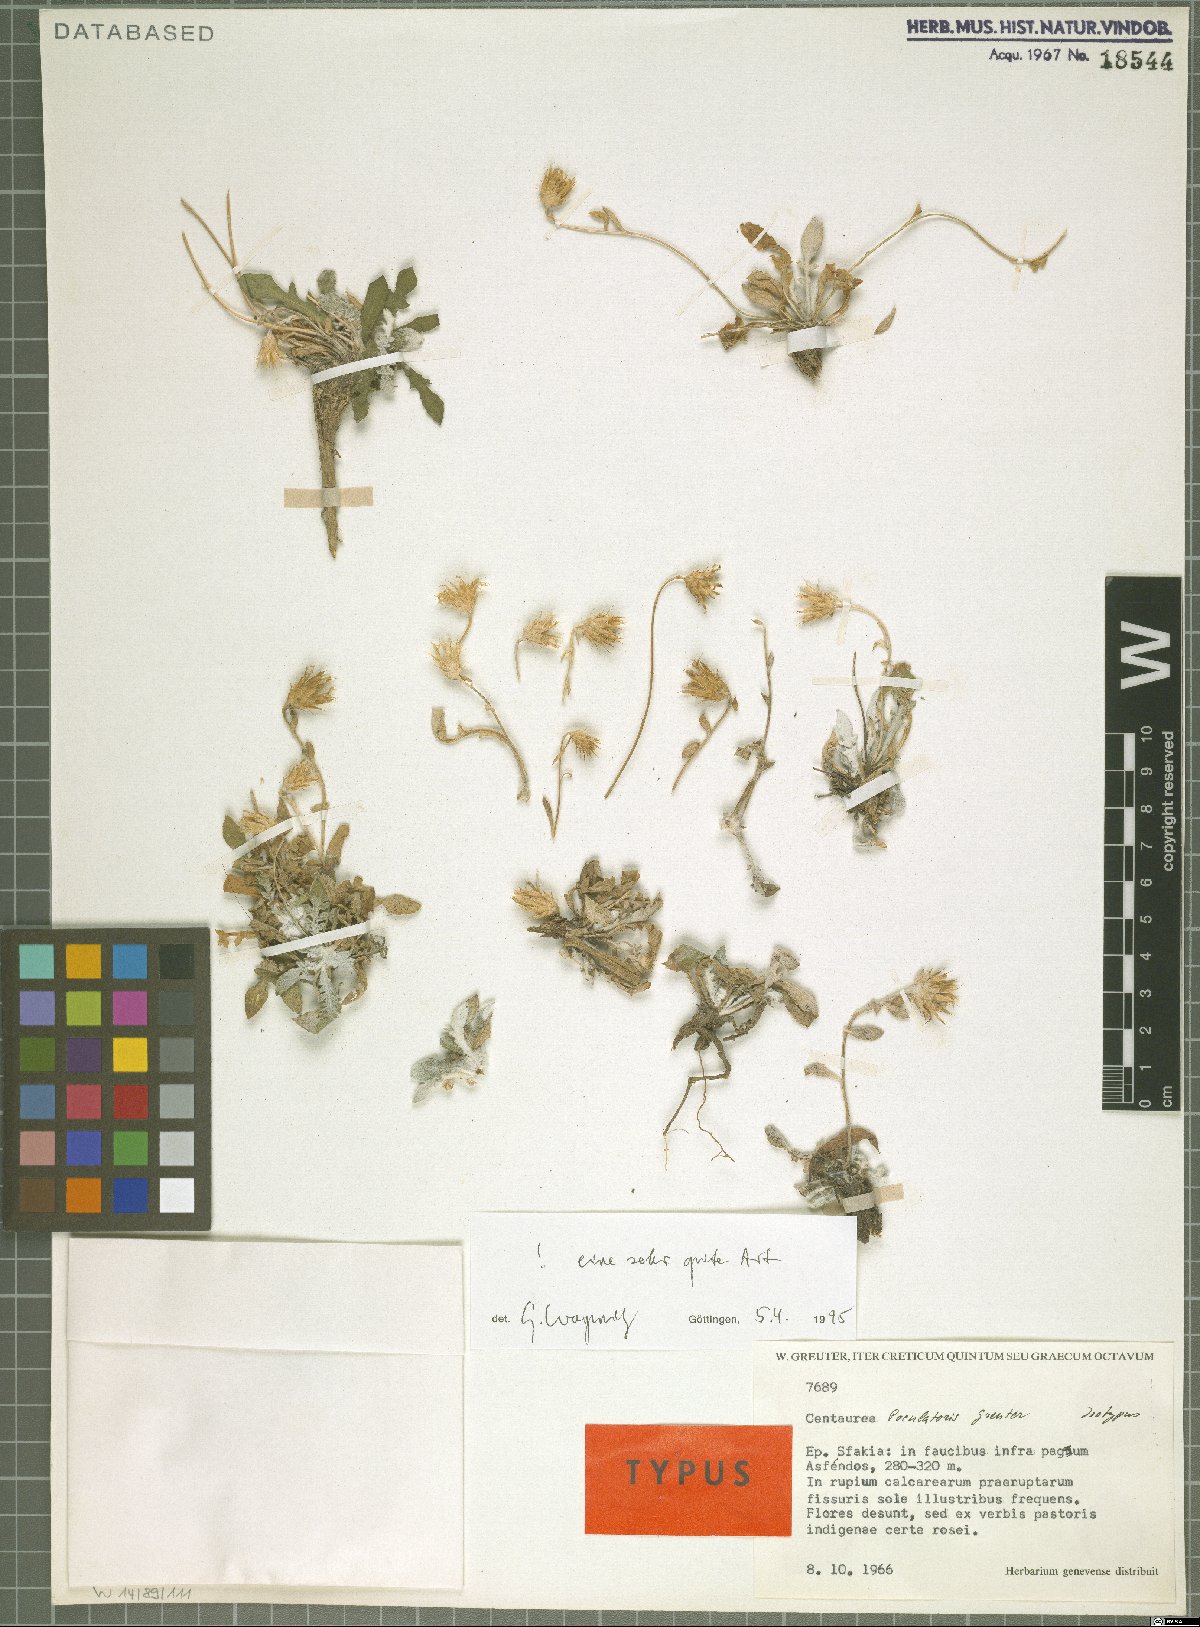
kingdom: Plantae
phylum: Tracheophyta
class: Magnoliopsida
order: Asterales
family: Asteraceae
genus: Centaurea
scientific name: Centaurea poculatoris
